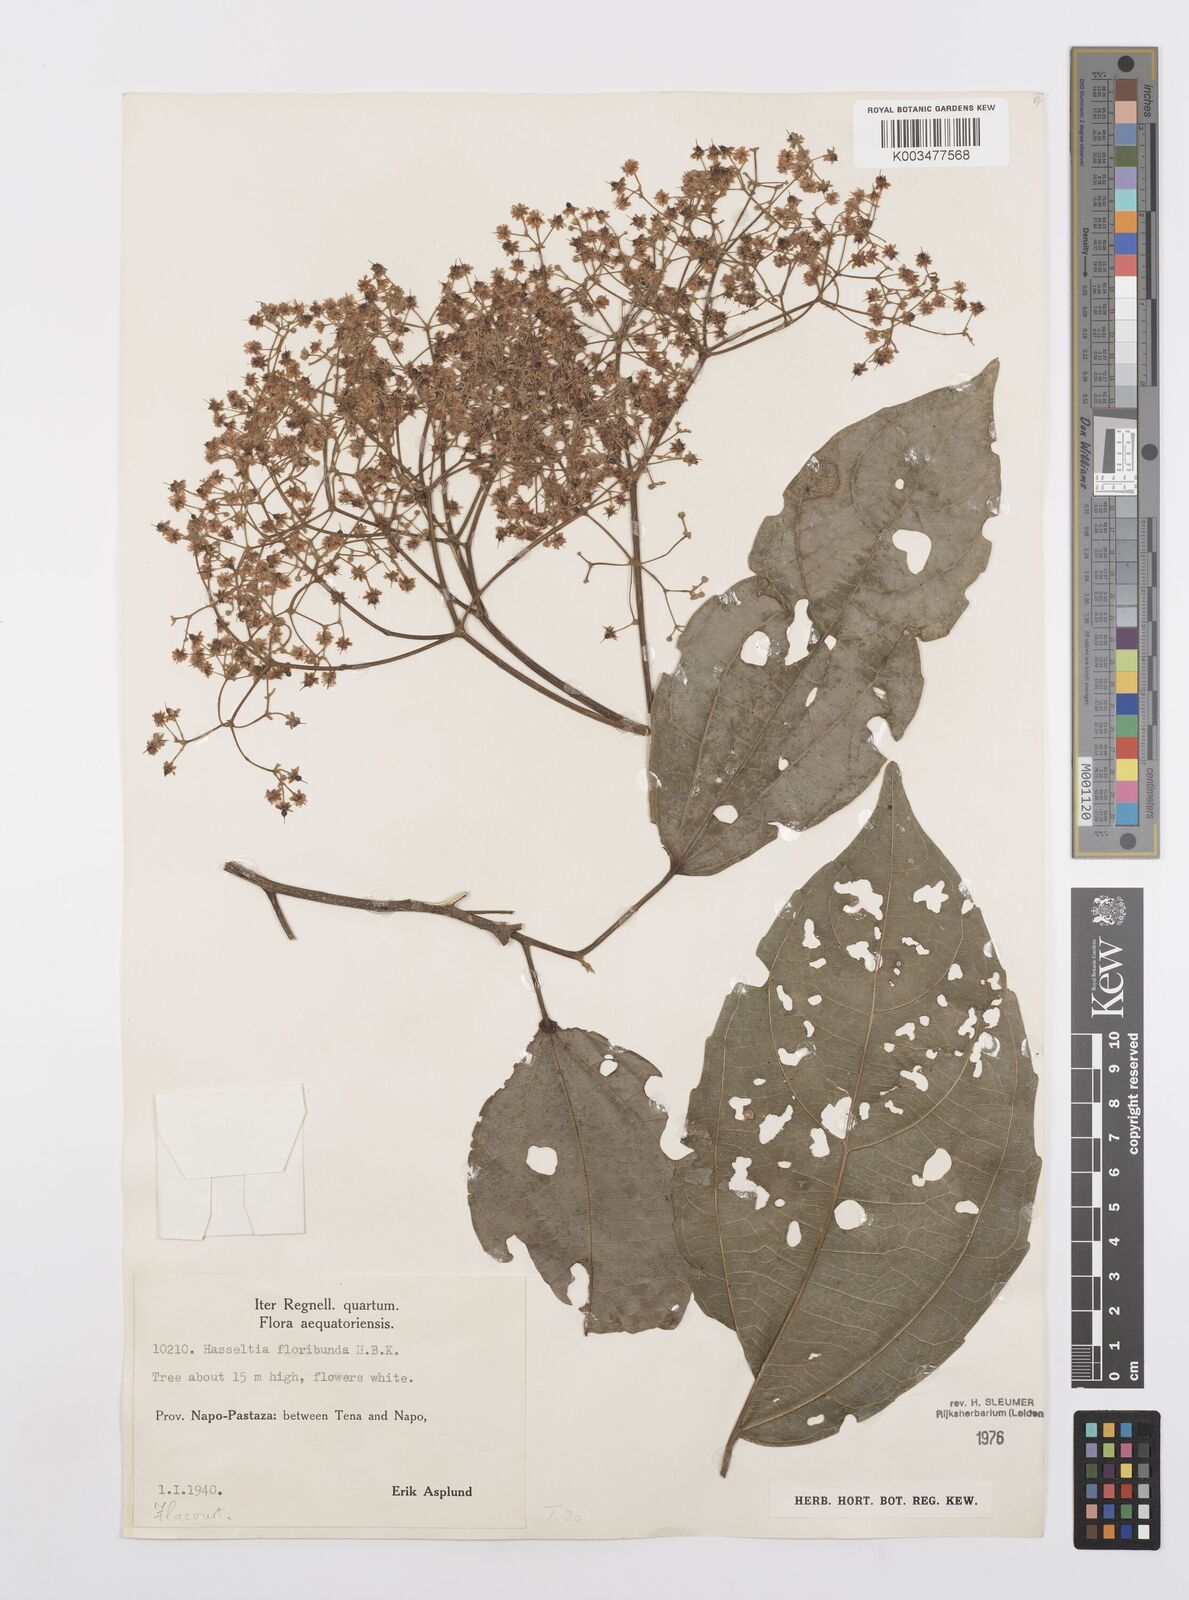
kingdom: Plantae
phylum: Tracheophyta
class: Magnoliopsida
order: Malpighiales
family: Salicaceae
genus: Hasseltia
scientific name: Hasseltia floribunda
